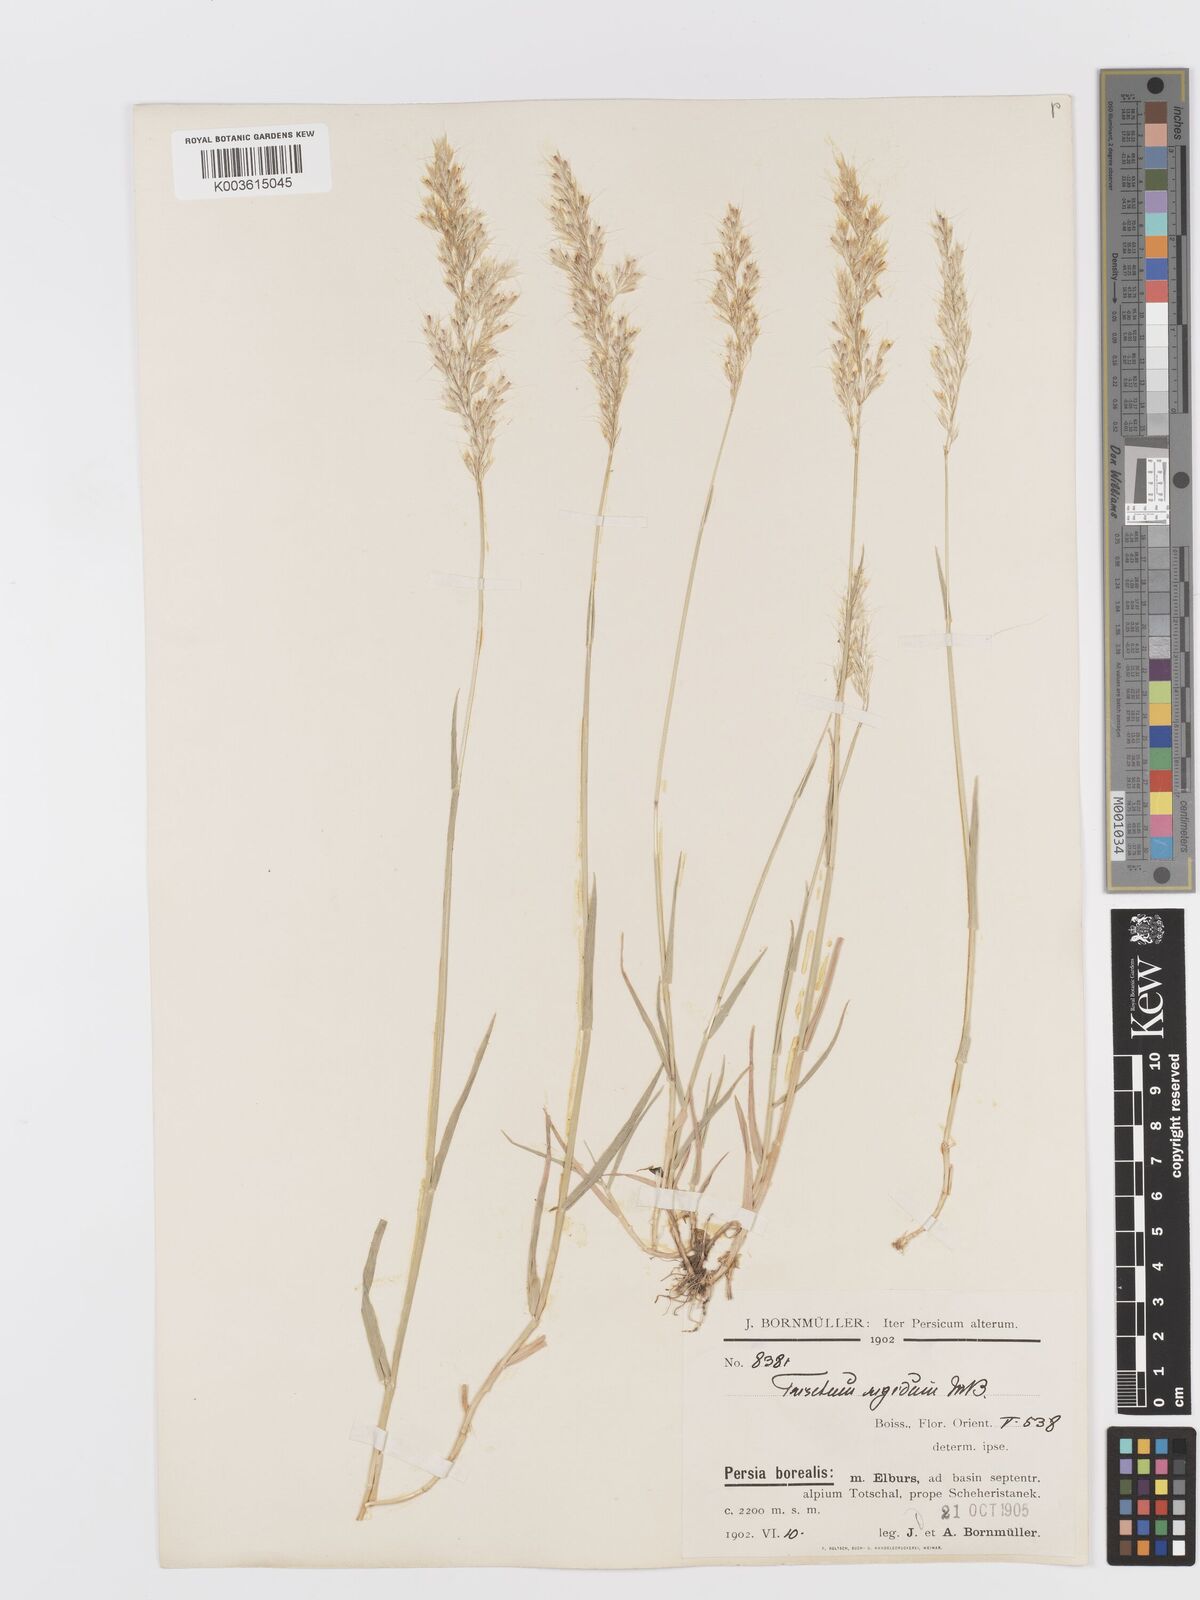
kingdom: Plantae
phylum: Tracheophyta
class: Liliopsida
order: Poales
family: Poaceae
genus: Trisetum
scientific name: Trisetum rigidum
